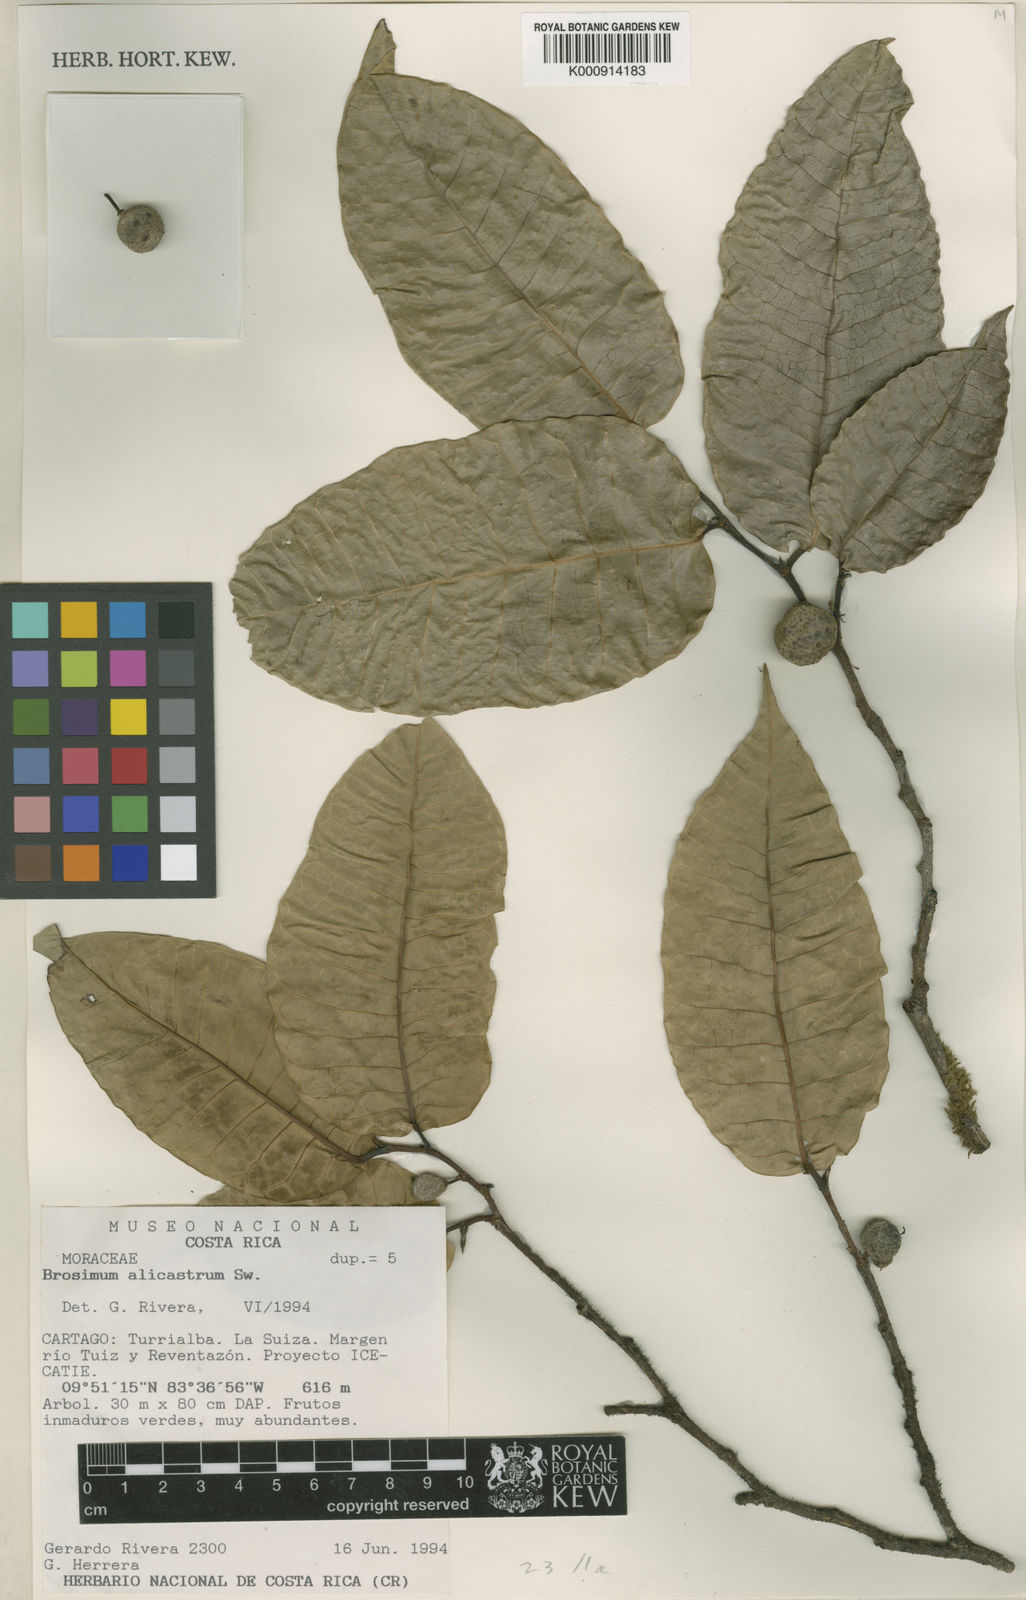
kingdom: Plantae
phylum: Tracheophyta
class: Magnoliopsida
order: Rosales
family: Moraceae
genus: Brosimum
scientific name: Brosimum alicastrum
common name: Breadnut
